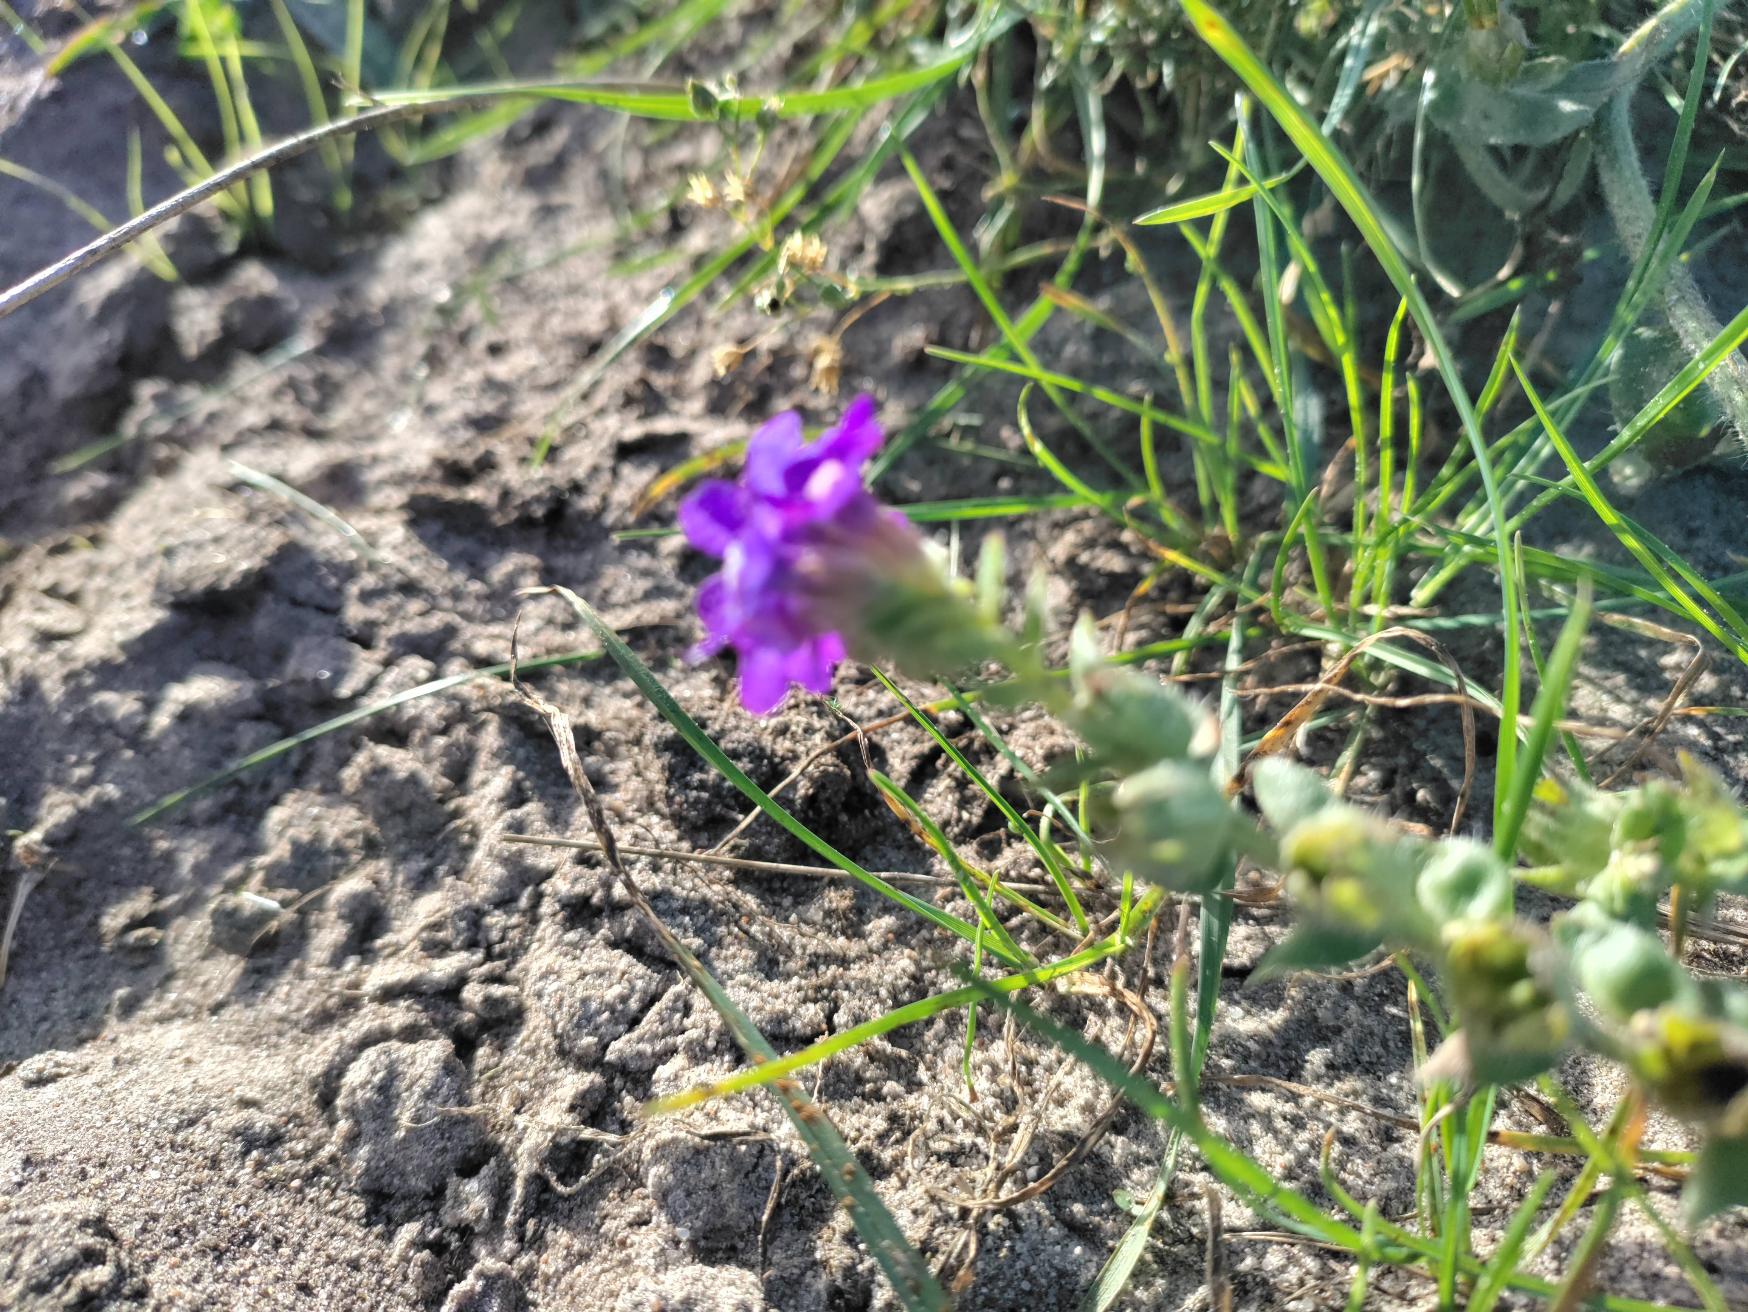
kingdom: Plantae
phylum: Tracheophyta
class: Magnoliopsida
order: Boraginales
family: Boraginaceae
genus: Anchusa
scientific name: Anchusa officinalis
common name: Læge-oksetunge
